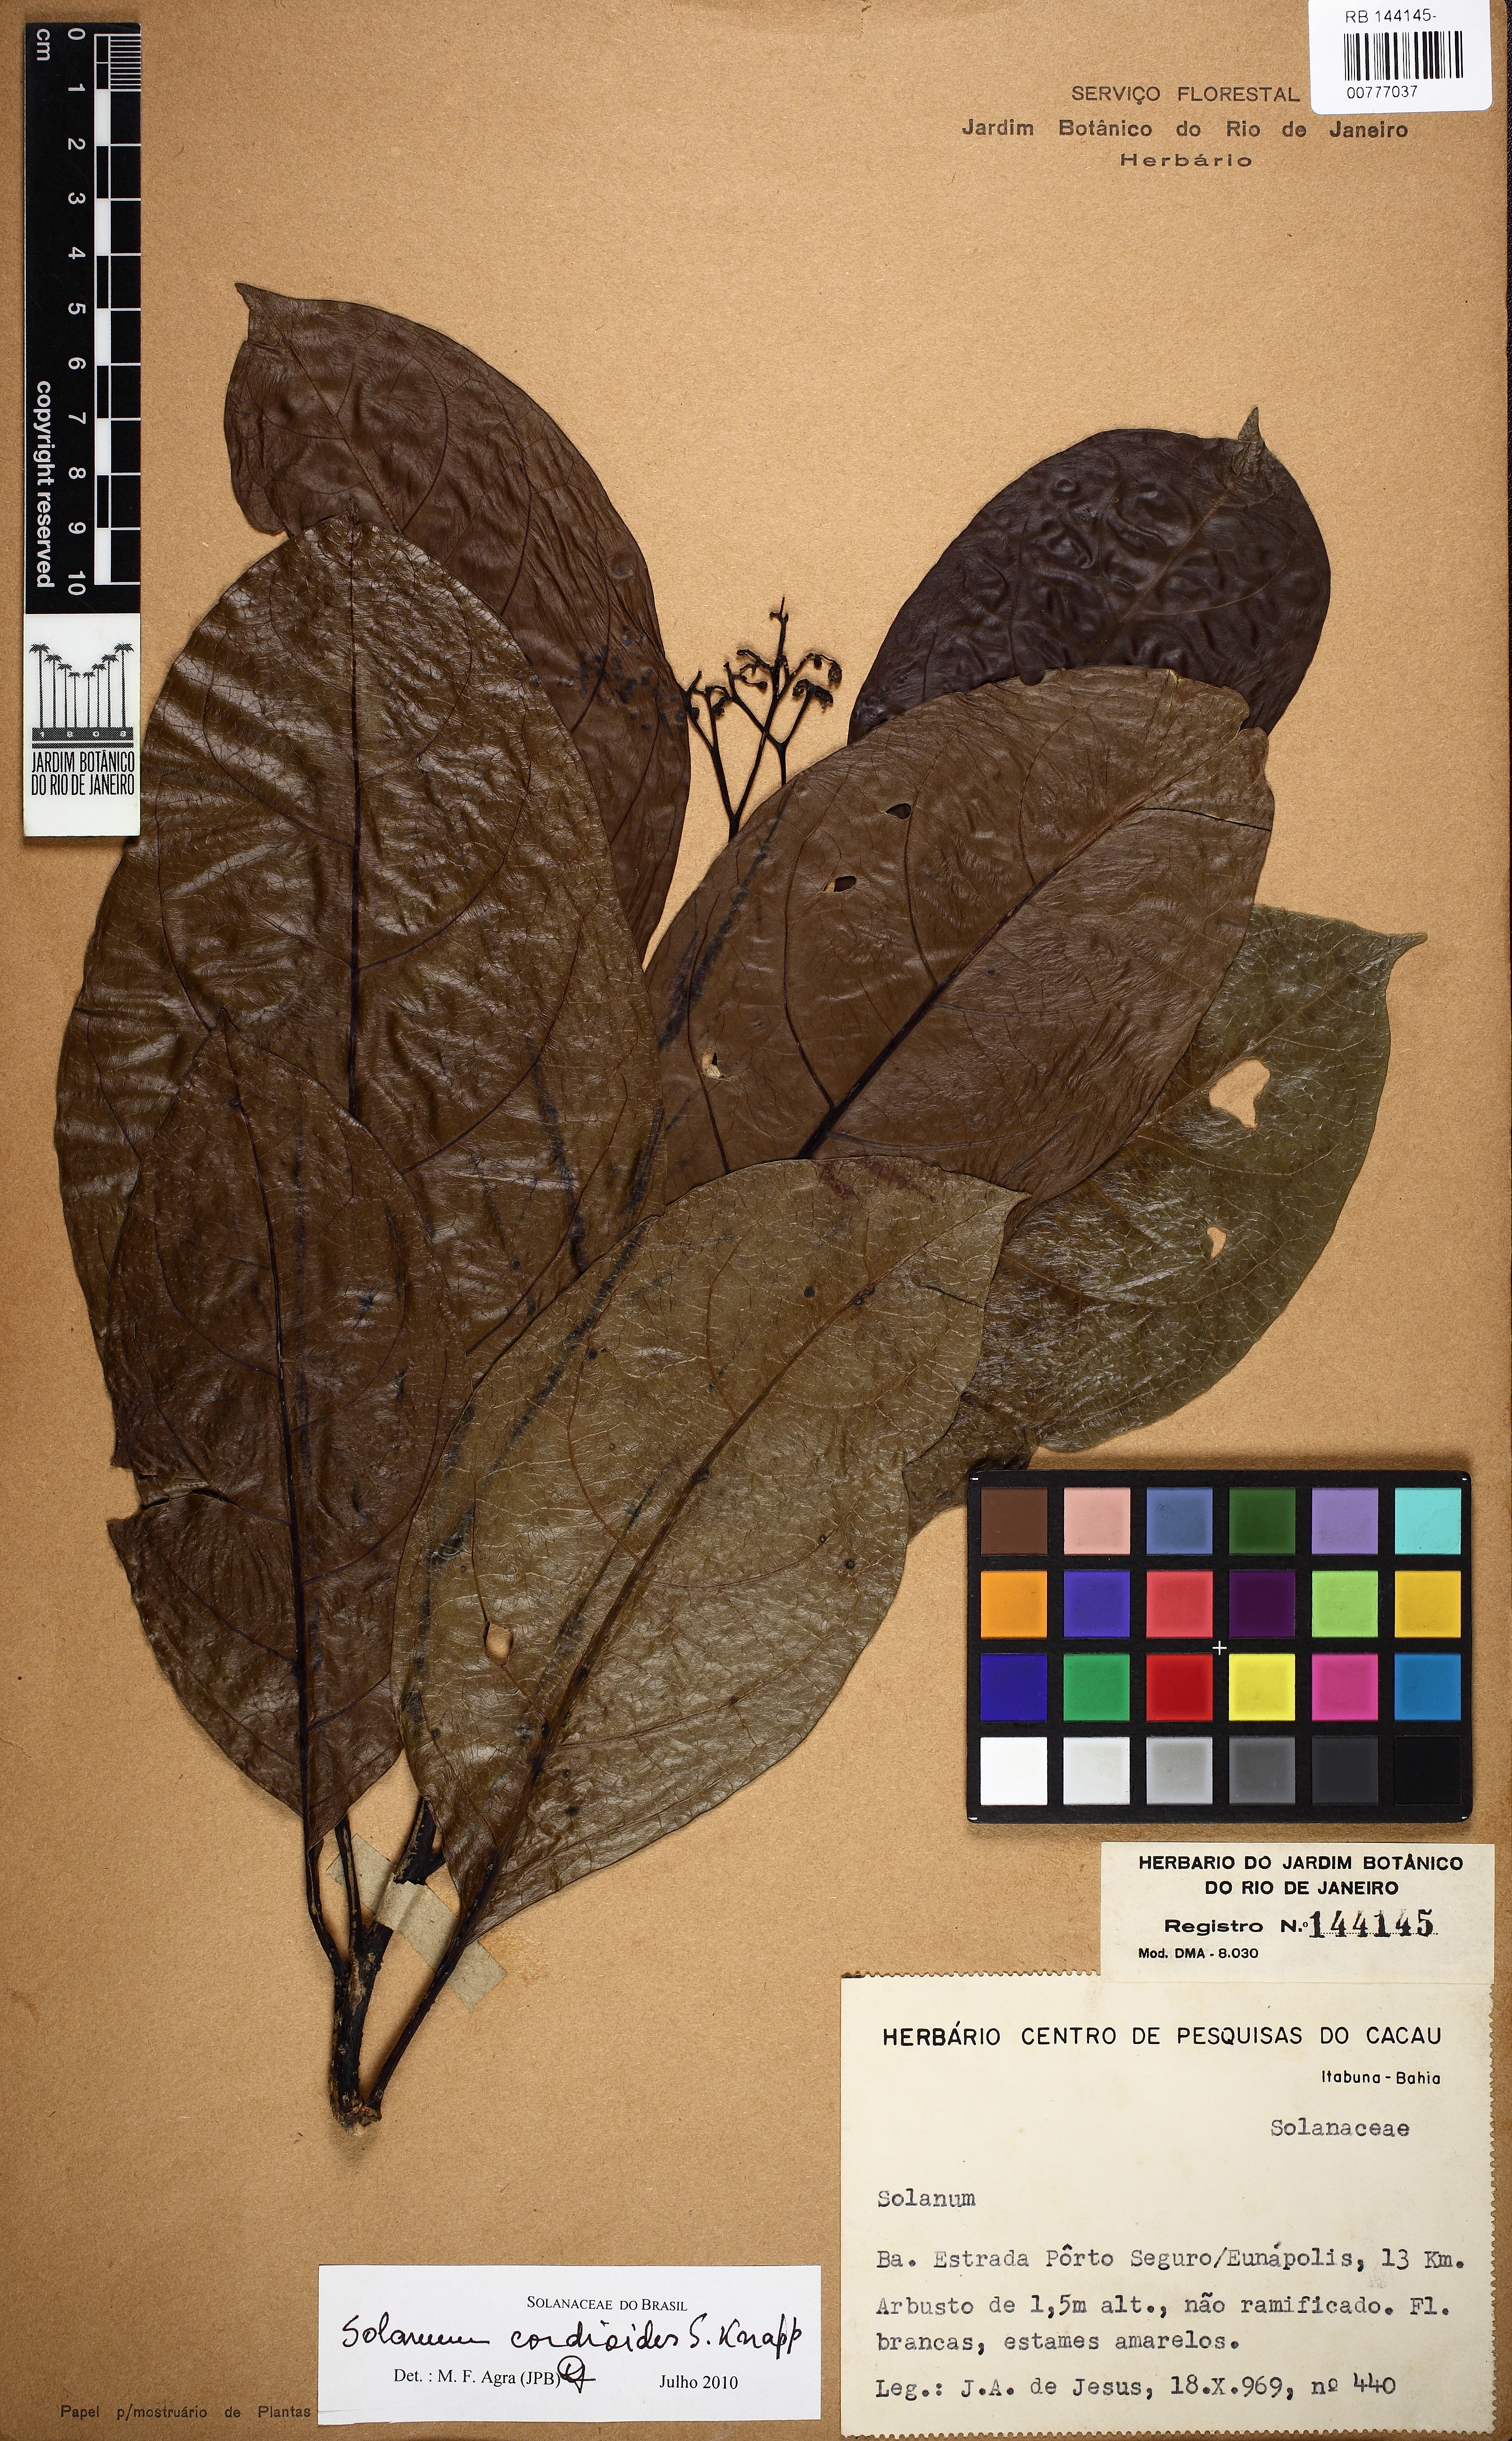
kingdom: Plantae
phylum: Tracheophyta
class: Magnoliopsida
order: Solanales
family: Solanaceae
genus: Solanum
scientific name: Solanum cordioides
